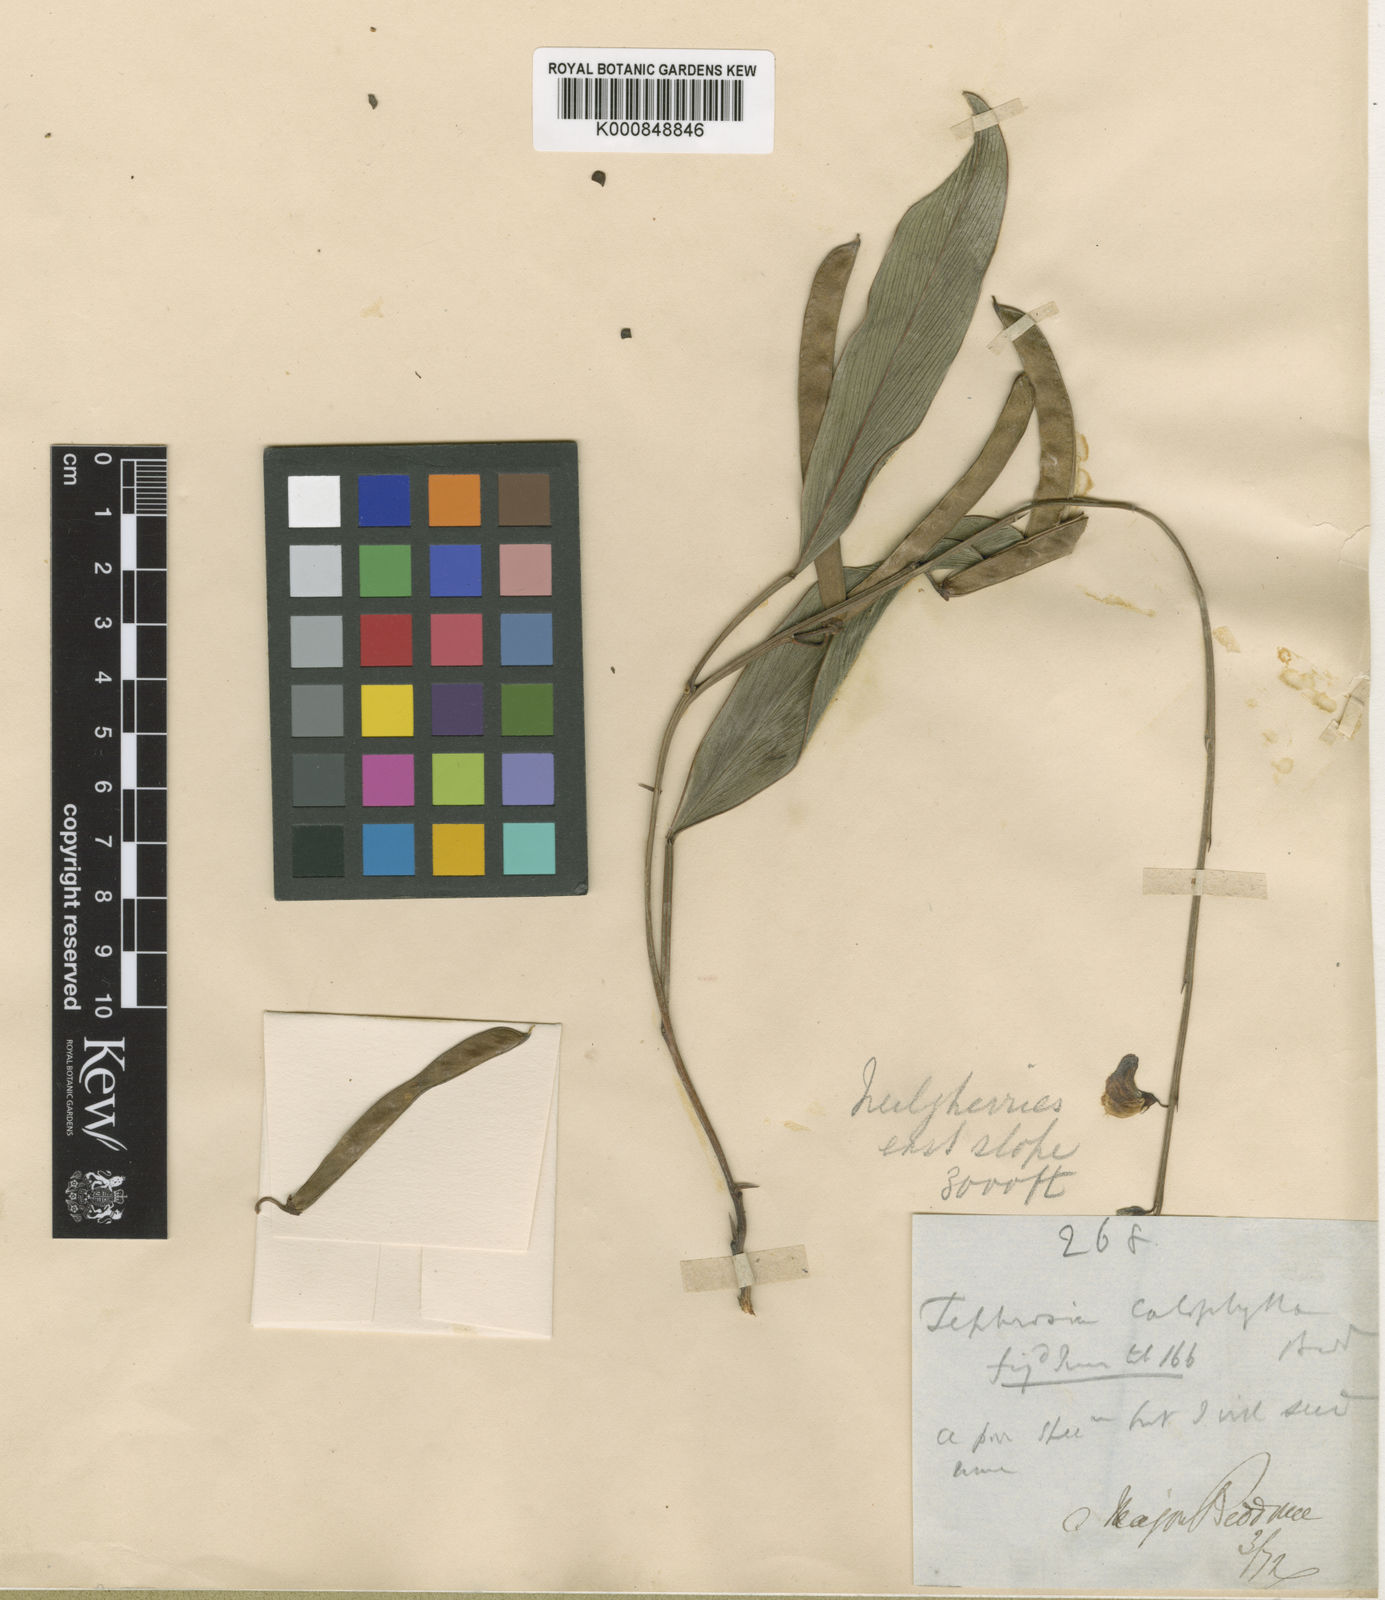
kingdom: Plantae
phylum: Tracheophyta
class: Magnoliopsida
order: Fabales
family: Fabaceae
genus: Tephrosia
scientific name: Tephrosia calophylla
